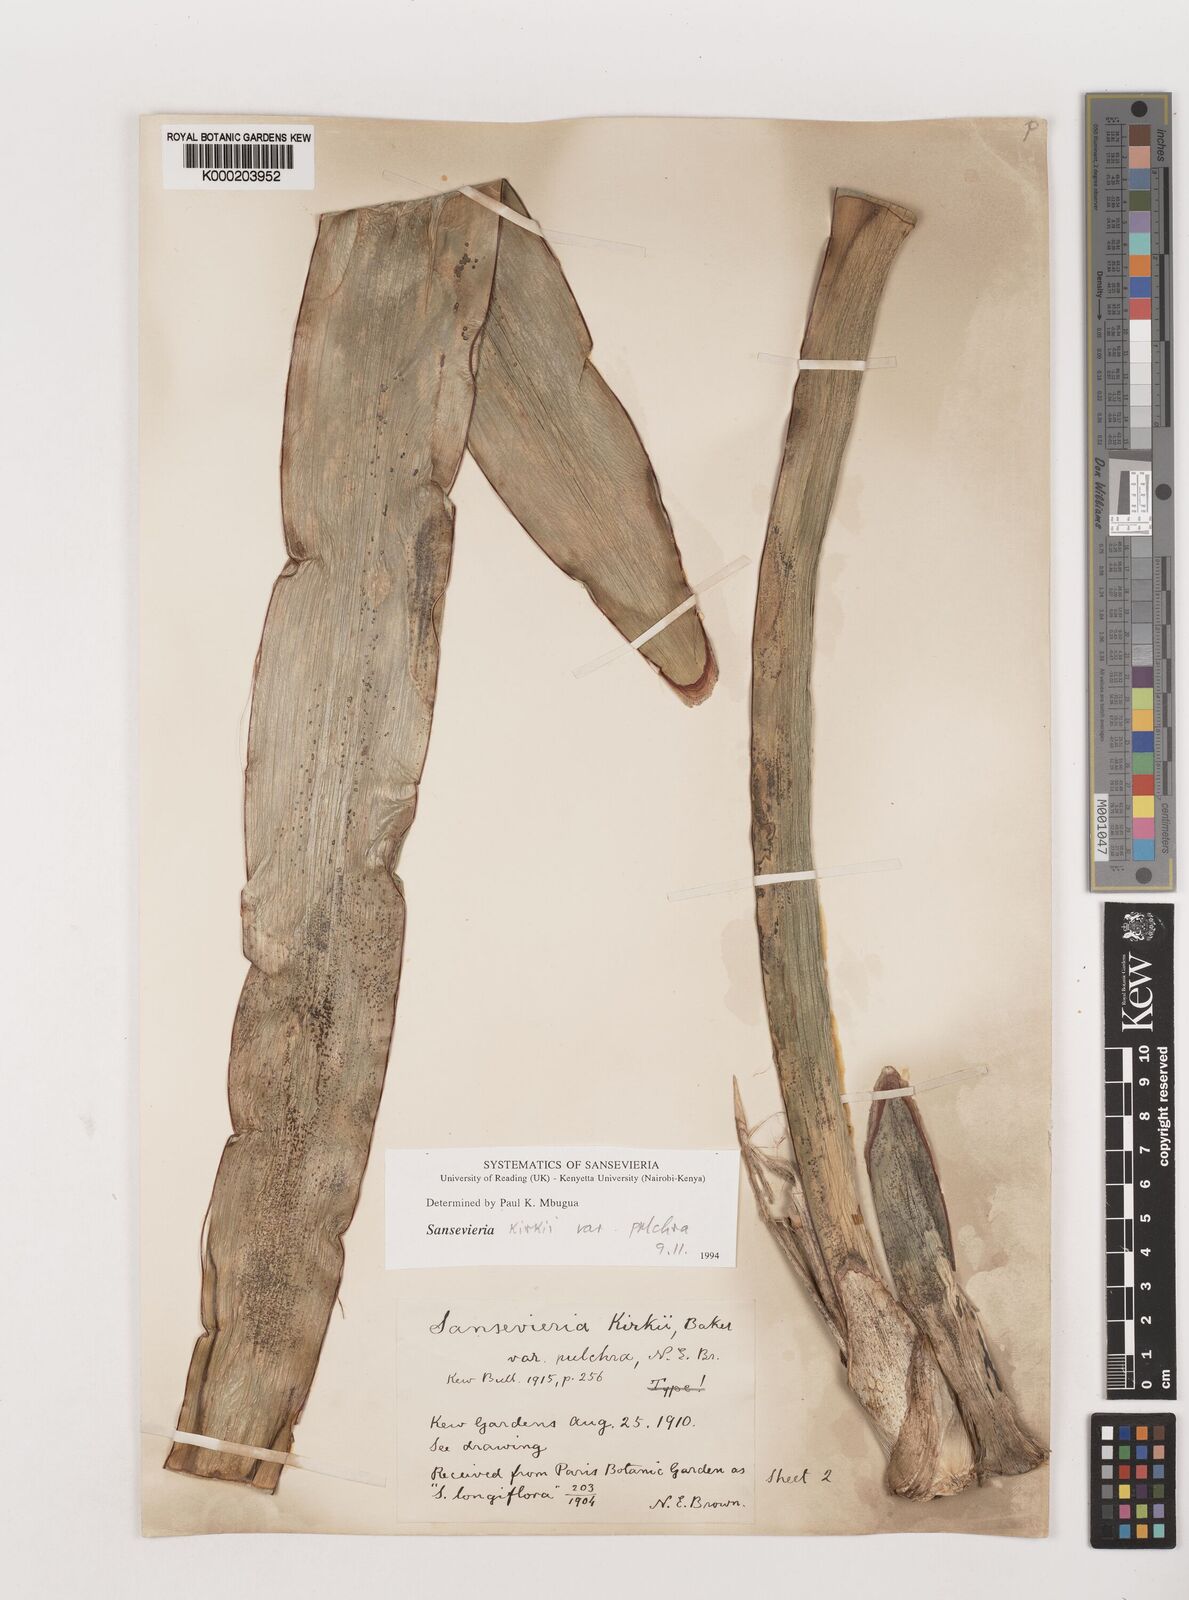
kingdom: Plantae
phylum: Tracheophyta
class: Liliopsida
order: Asparagales
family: Asparagaceae
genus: Dracaena
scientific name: Dracaena pethera
